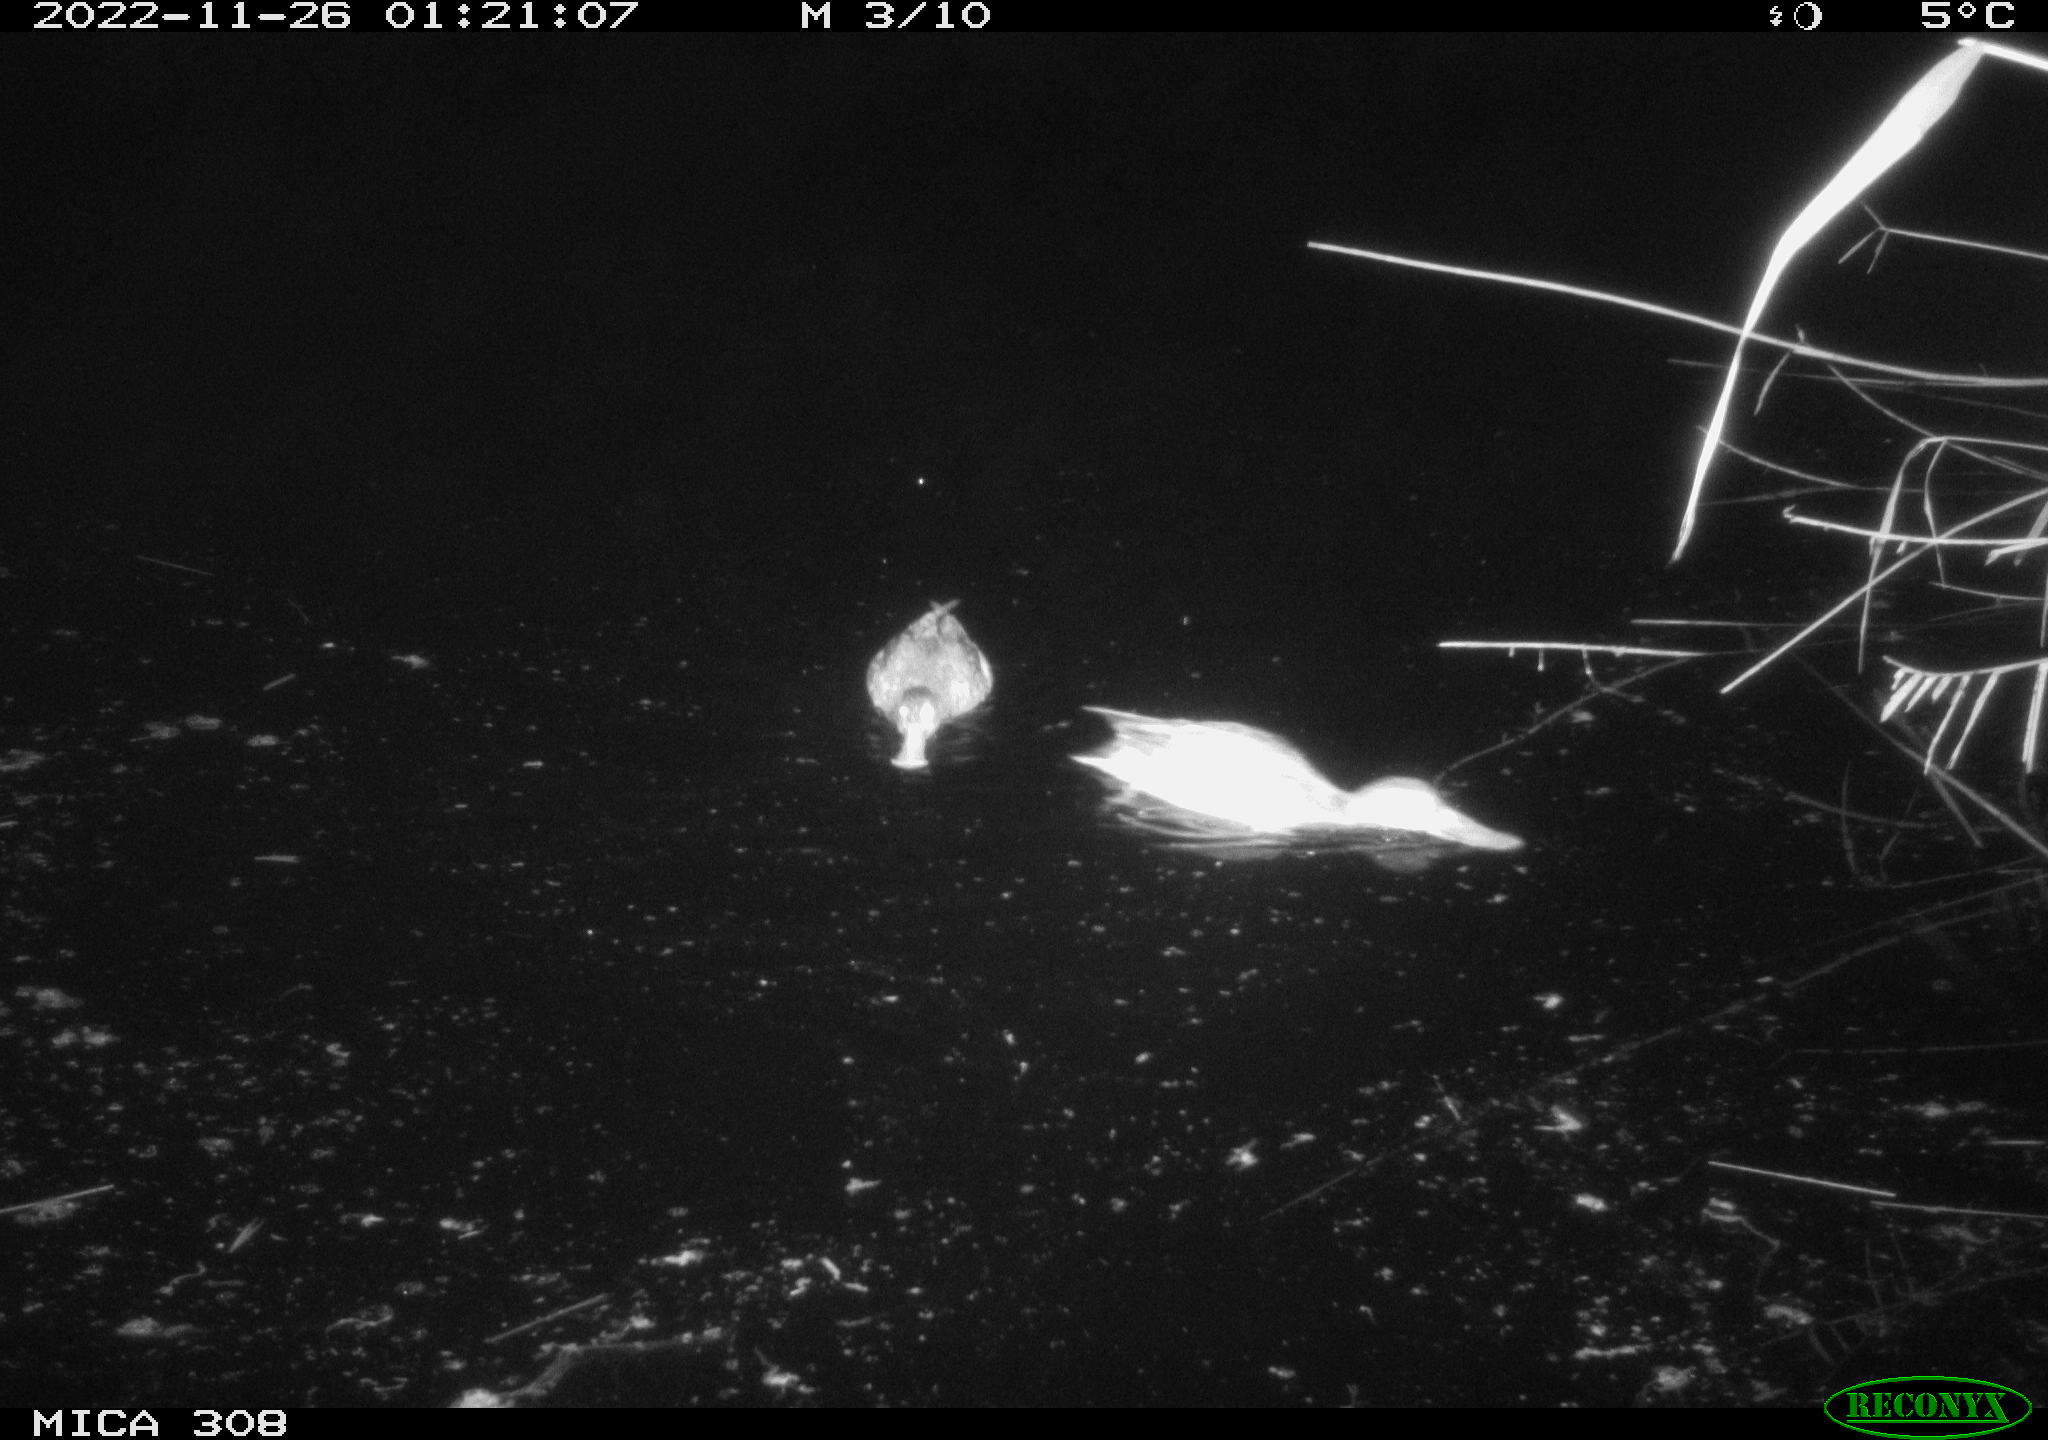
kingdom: Animalia
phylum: Chordata
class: Aves
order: Anseriformes
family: Anatidae
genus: Anas
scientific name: Anas
